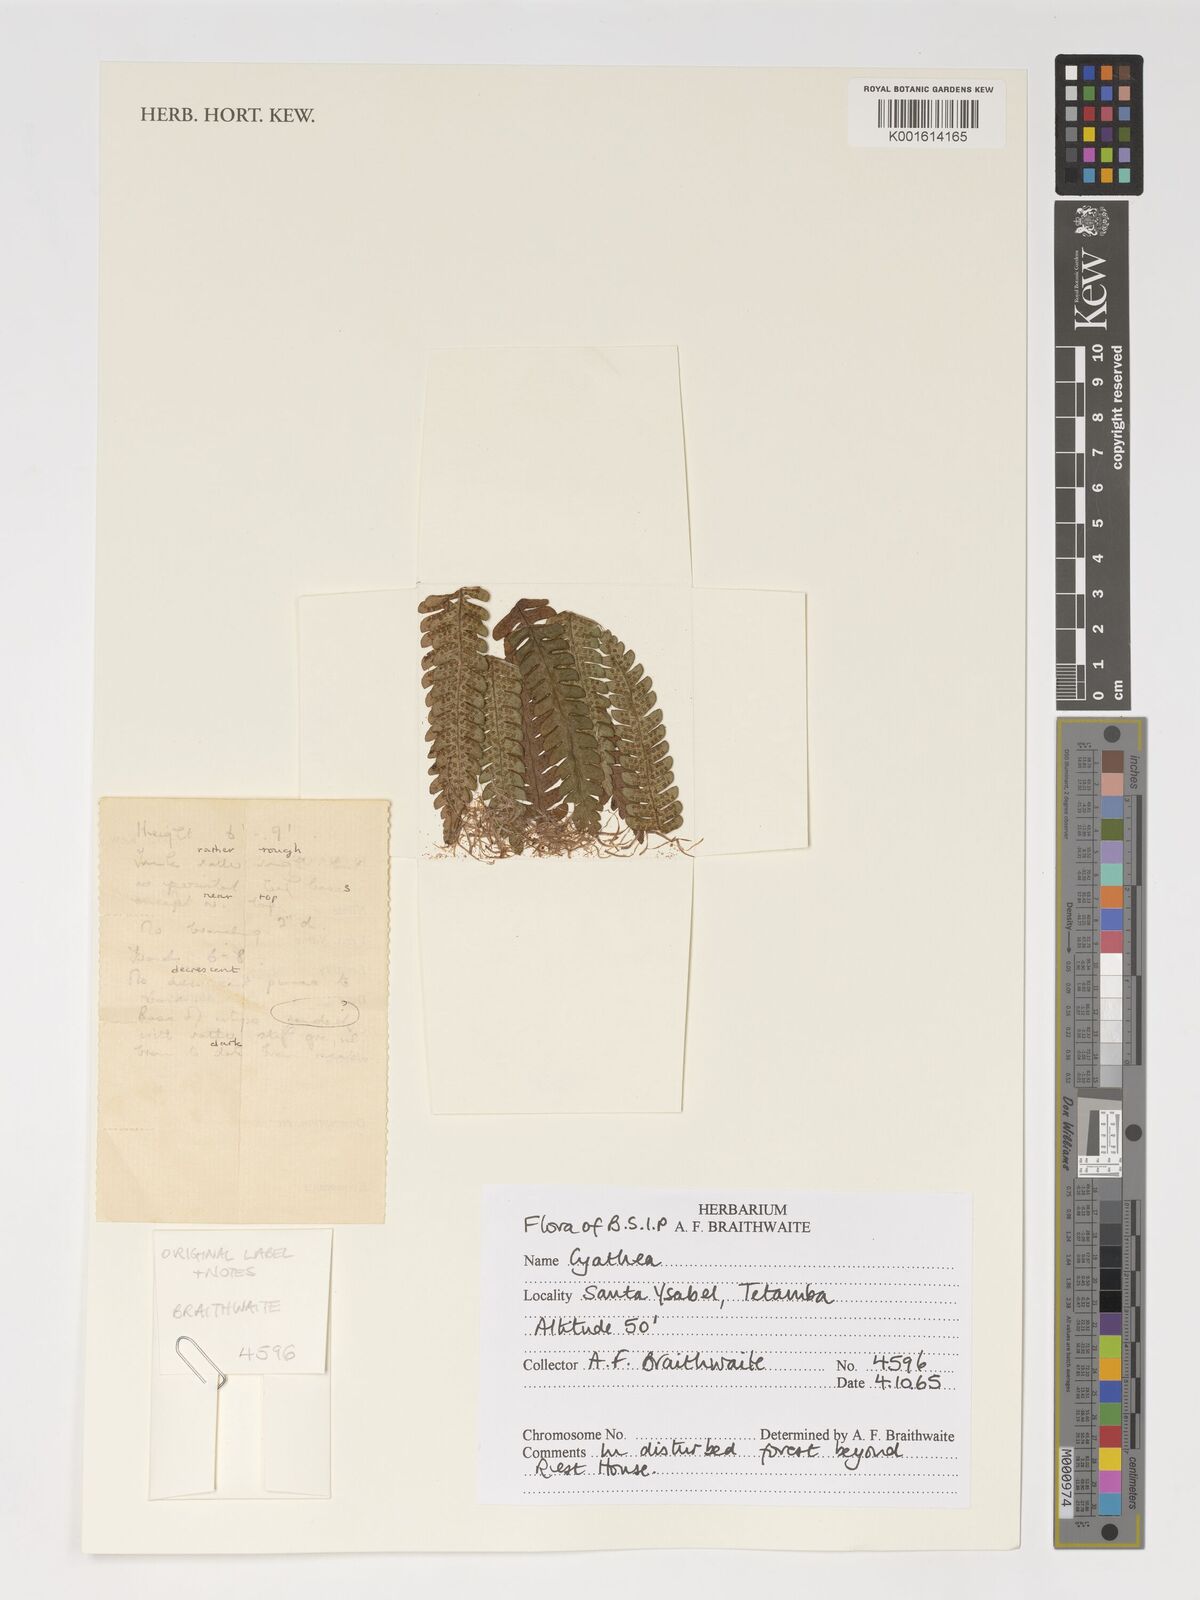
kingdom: Plantae
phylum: Tracheophyta
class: Polypodiopsida
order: Cyatheales
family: Cyatheaceae
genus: Cyathea
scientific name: Cyathea
